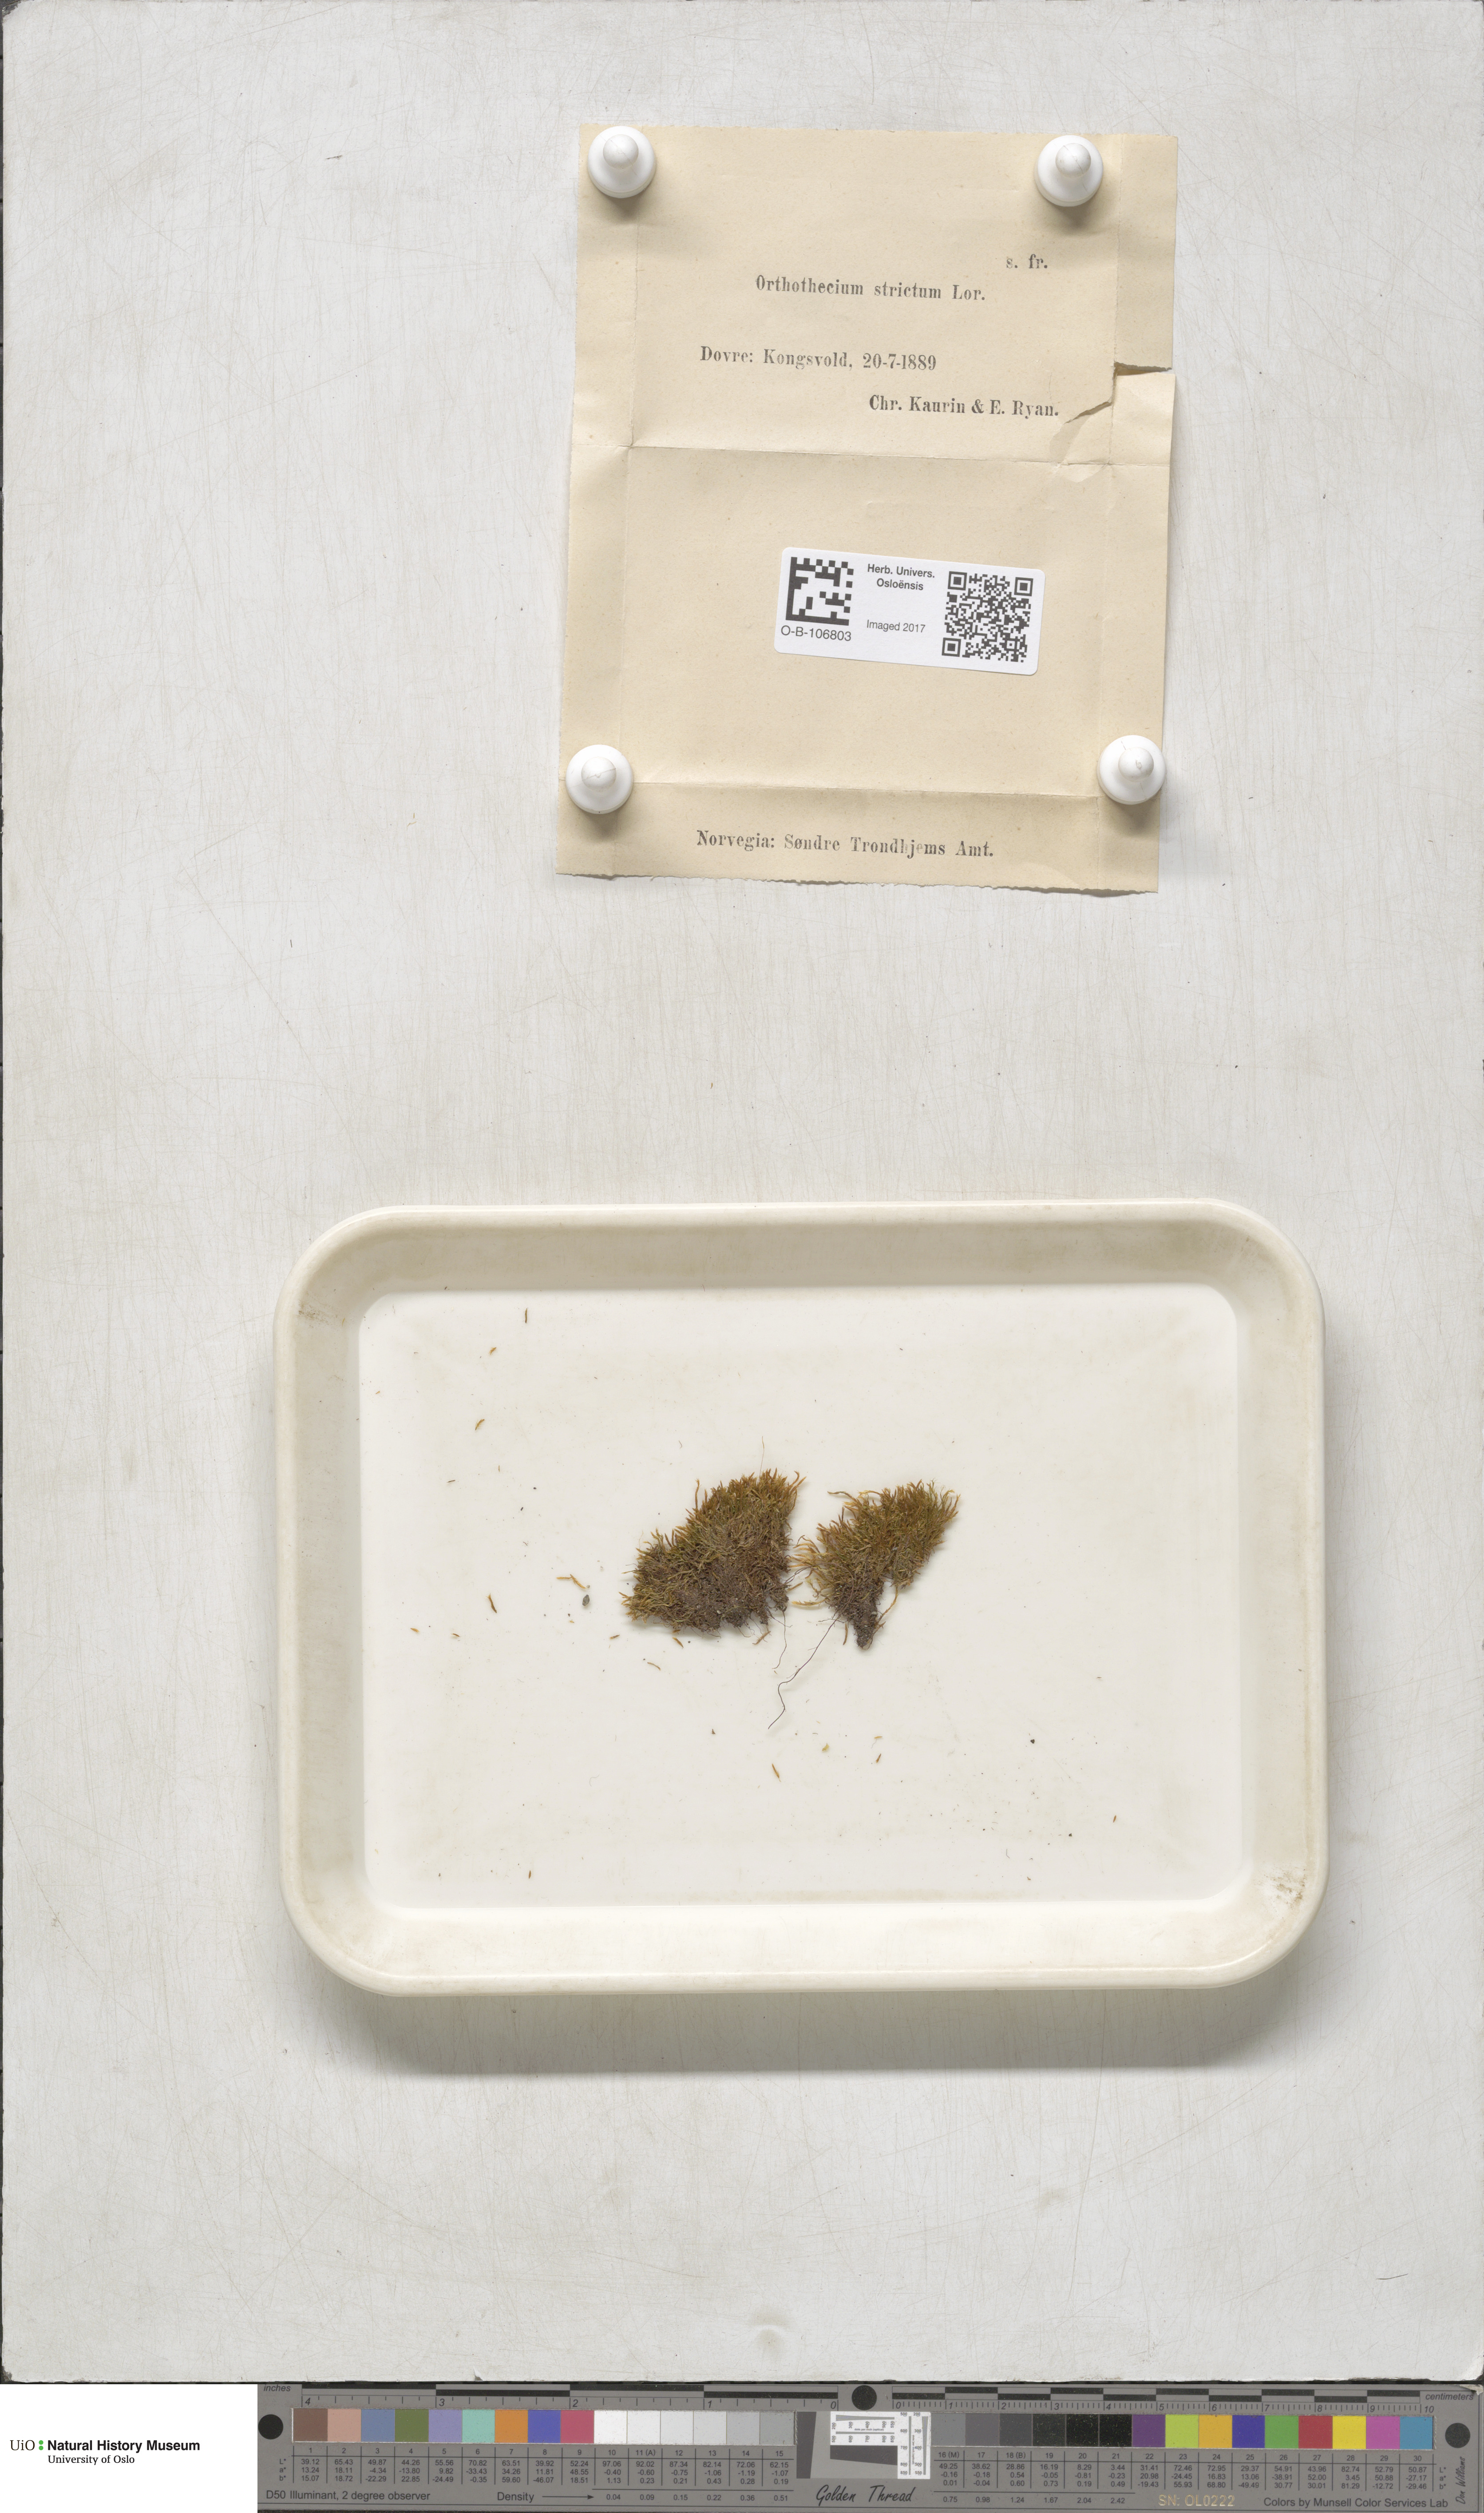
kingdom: Plantae
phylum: Bryophyta
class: Bryopsida
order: Hypnales
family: Plagiotheciaceae
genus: Orthothecium
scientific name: Orthothecium strictum
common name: Shiny erect-capsule moss
